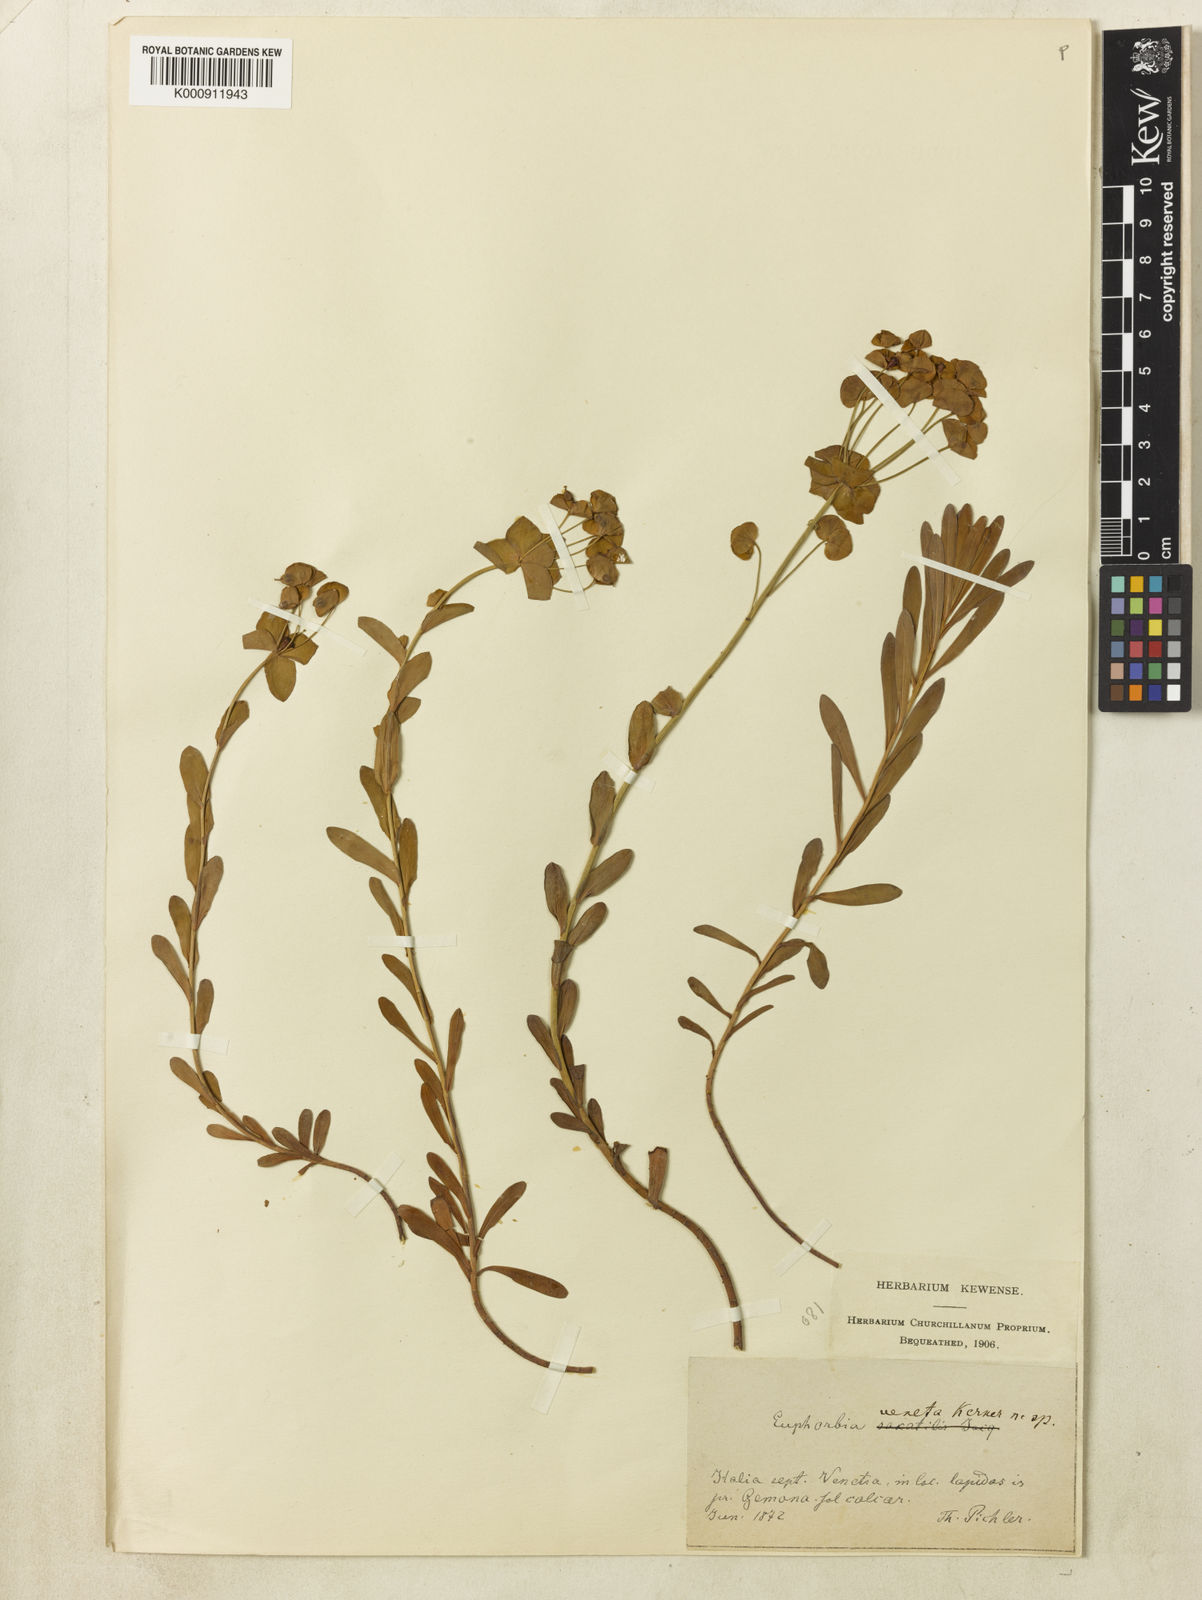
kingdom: Plantae
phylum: Tracheophyta
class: Magnoliopsida
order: Malpighiales
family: Euphorbiaceae
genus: Euphorbia
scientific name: Euphorbia kerneri
